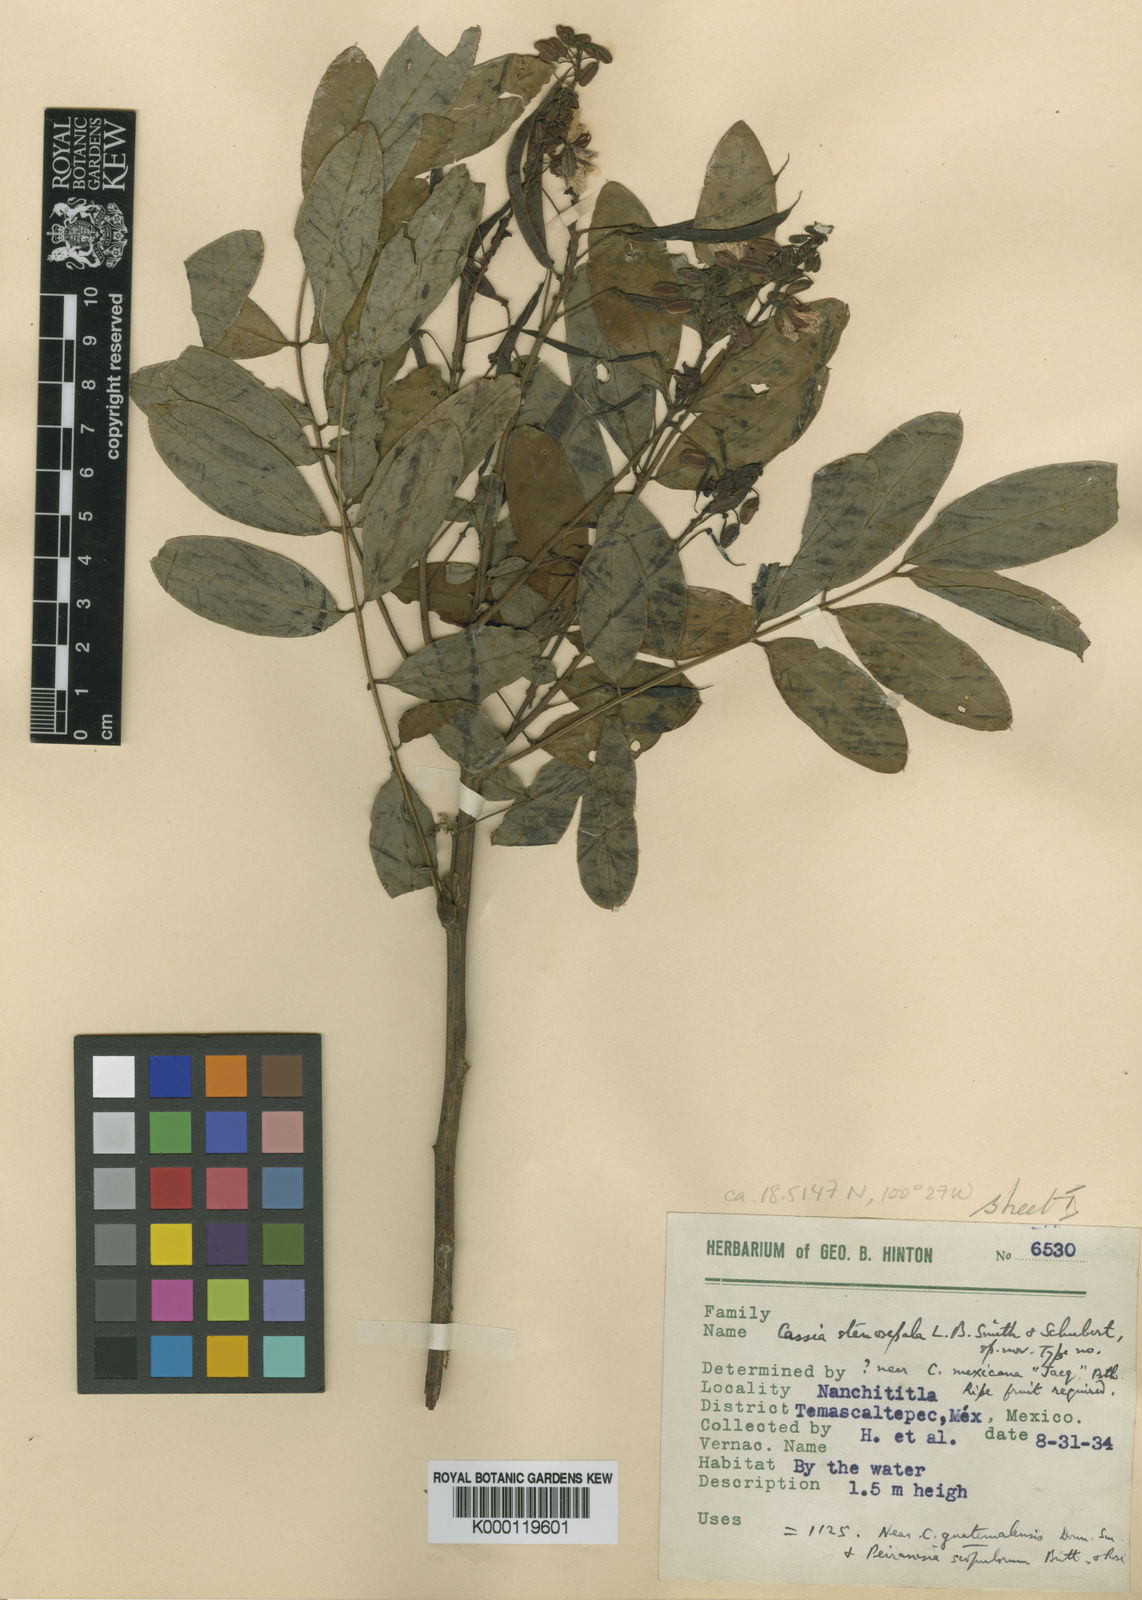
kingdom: Plantae
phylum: Tracheophyta
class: Magnoliopsida
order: Fabales
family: Fabaceae
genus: Senna
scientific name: Senna foetidissima
